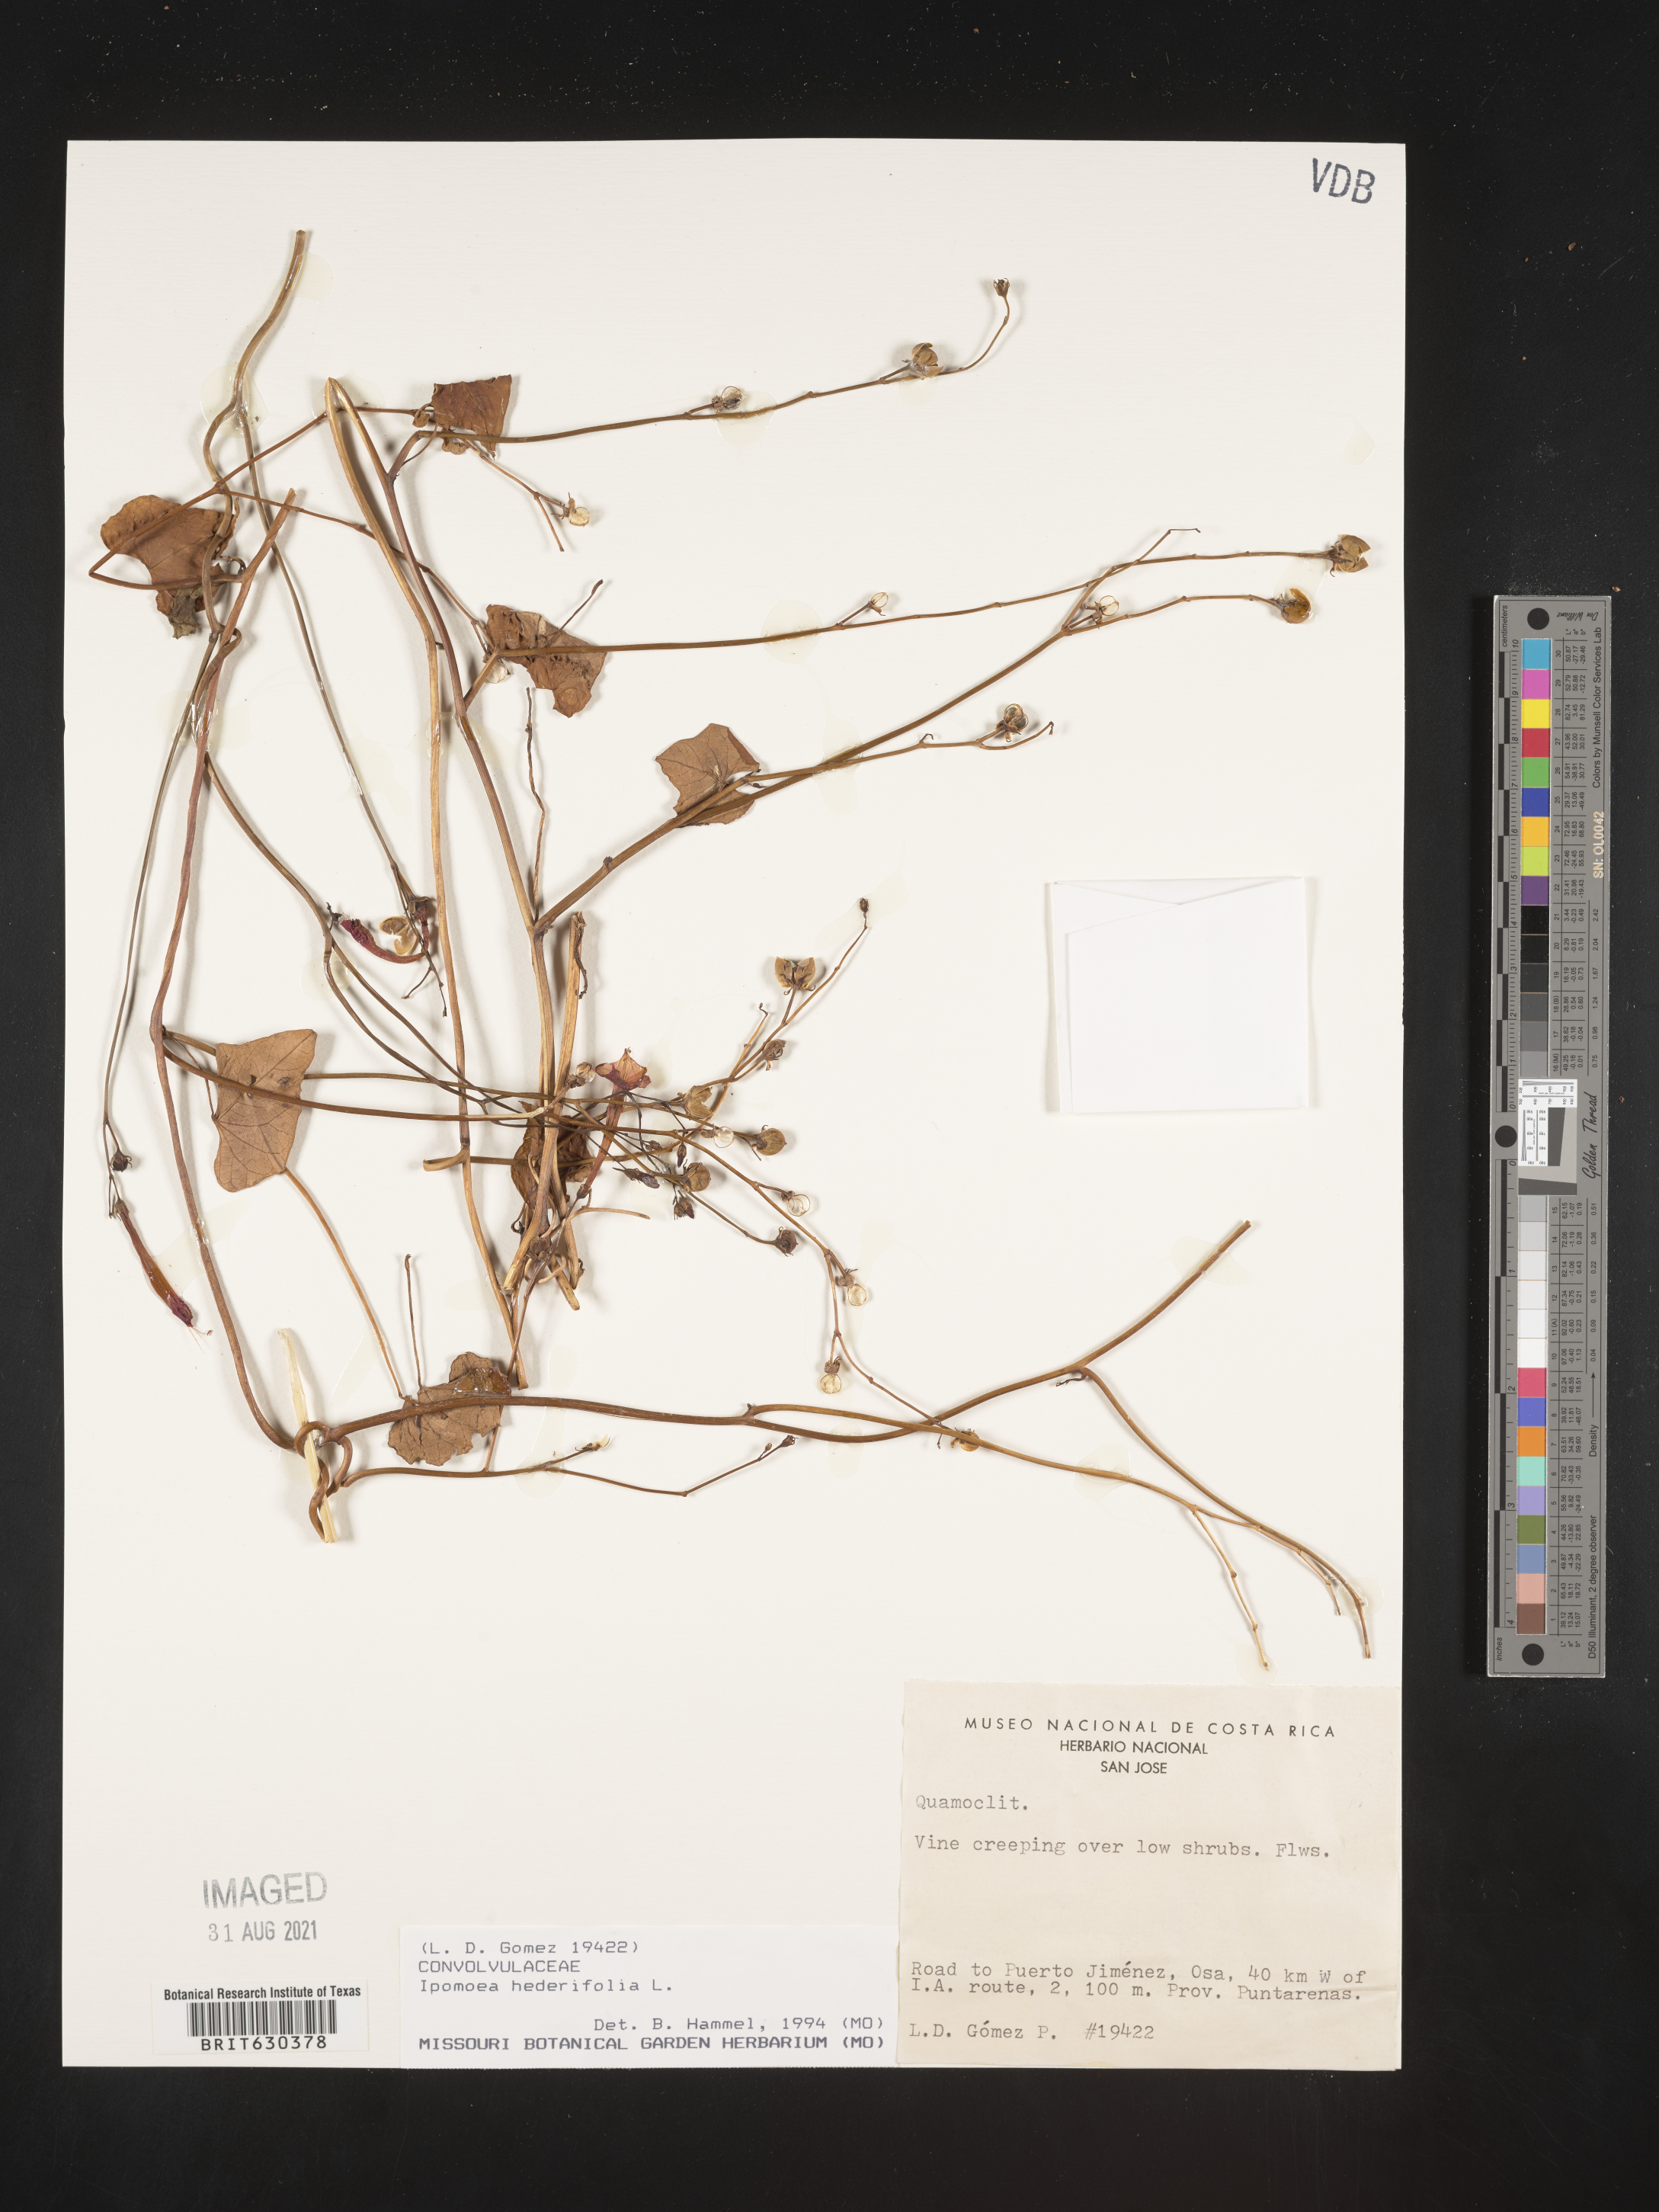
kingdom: Plantae
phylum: Tracheophyta
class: Magnoliopsida
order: Solanales
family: Convolvulaceae
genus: Ipomoea
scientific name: Ipomoea hederifolia
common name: Ivy-leaf morning-glory
